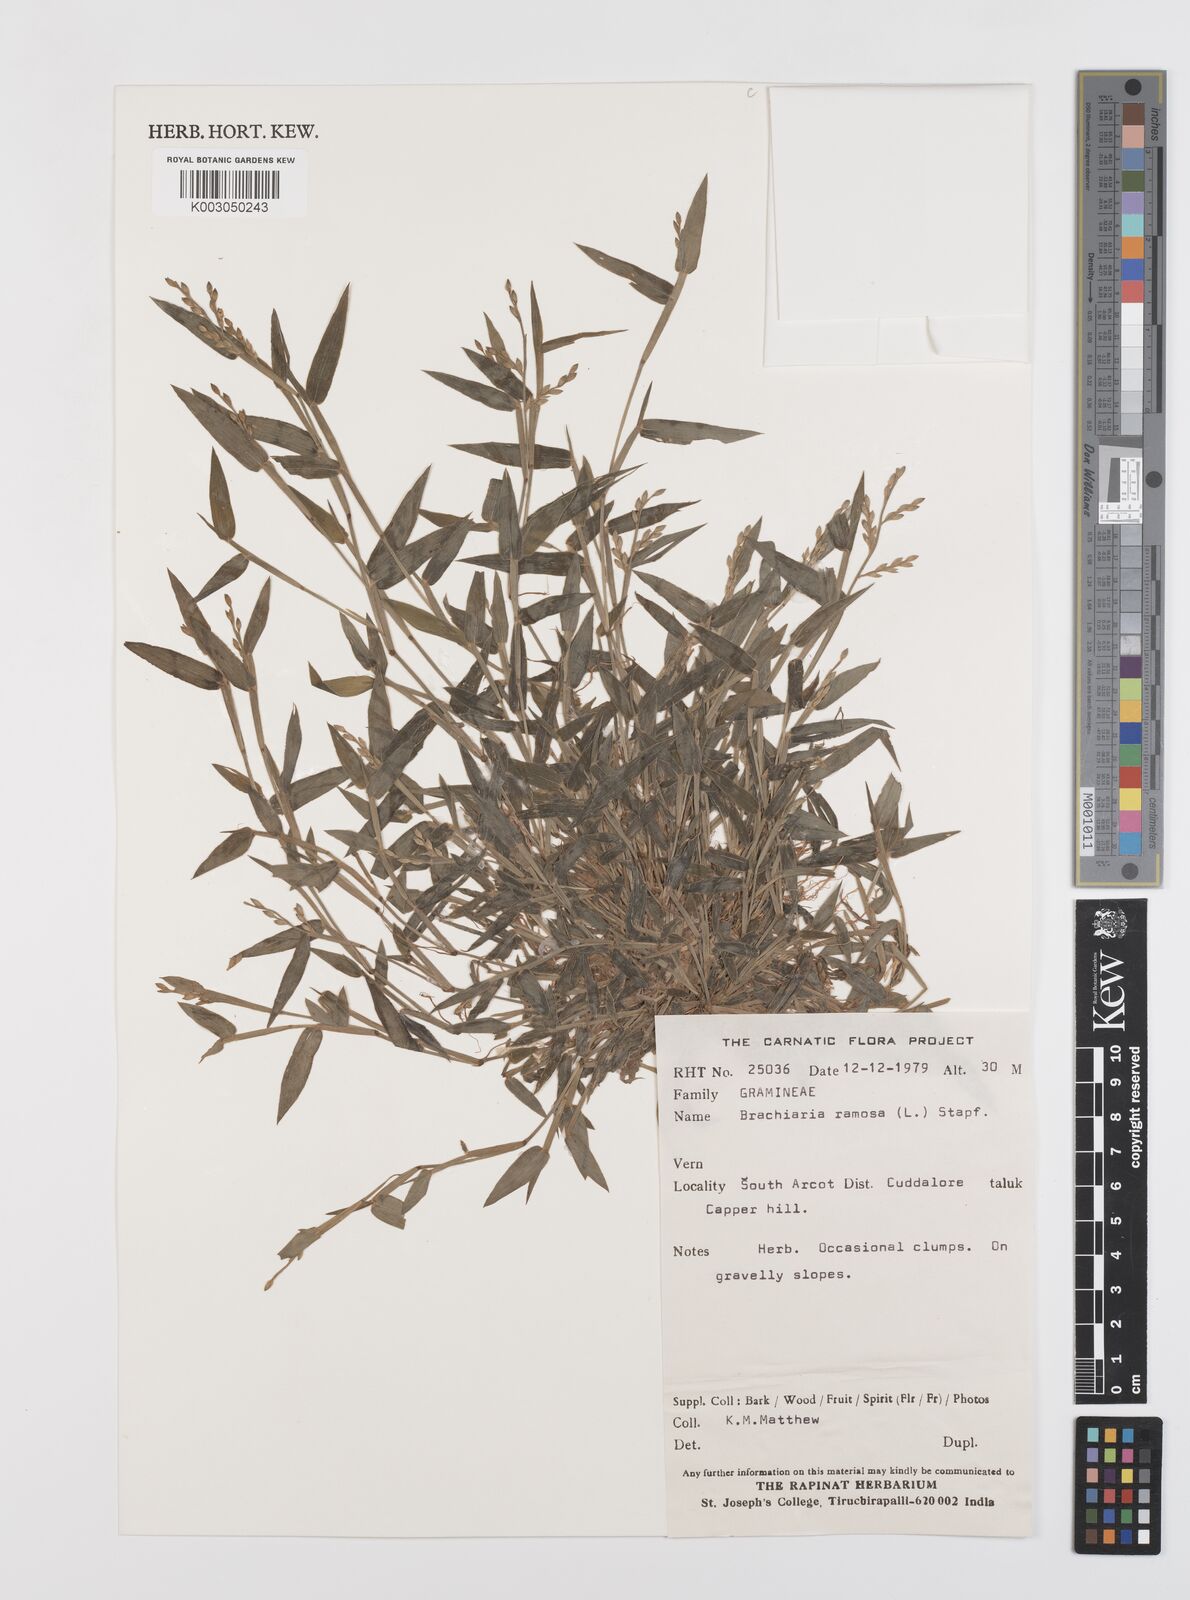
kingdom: Plantae
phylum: Tracheophyta
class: Liliopsida
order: Poales
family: Poaceae
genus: Urochloa
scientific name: Urochloa ramosa
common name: Browntop millet
